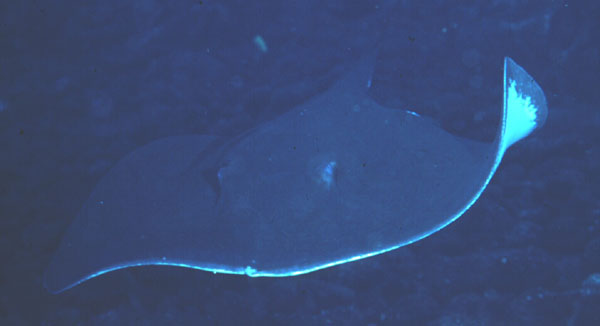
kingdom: Animalia
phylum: Chordata
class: Elasmobranchii
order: Myliobatiformes
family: Dasyatidae
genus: Dasyatis
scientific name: Dasyatis
